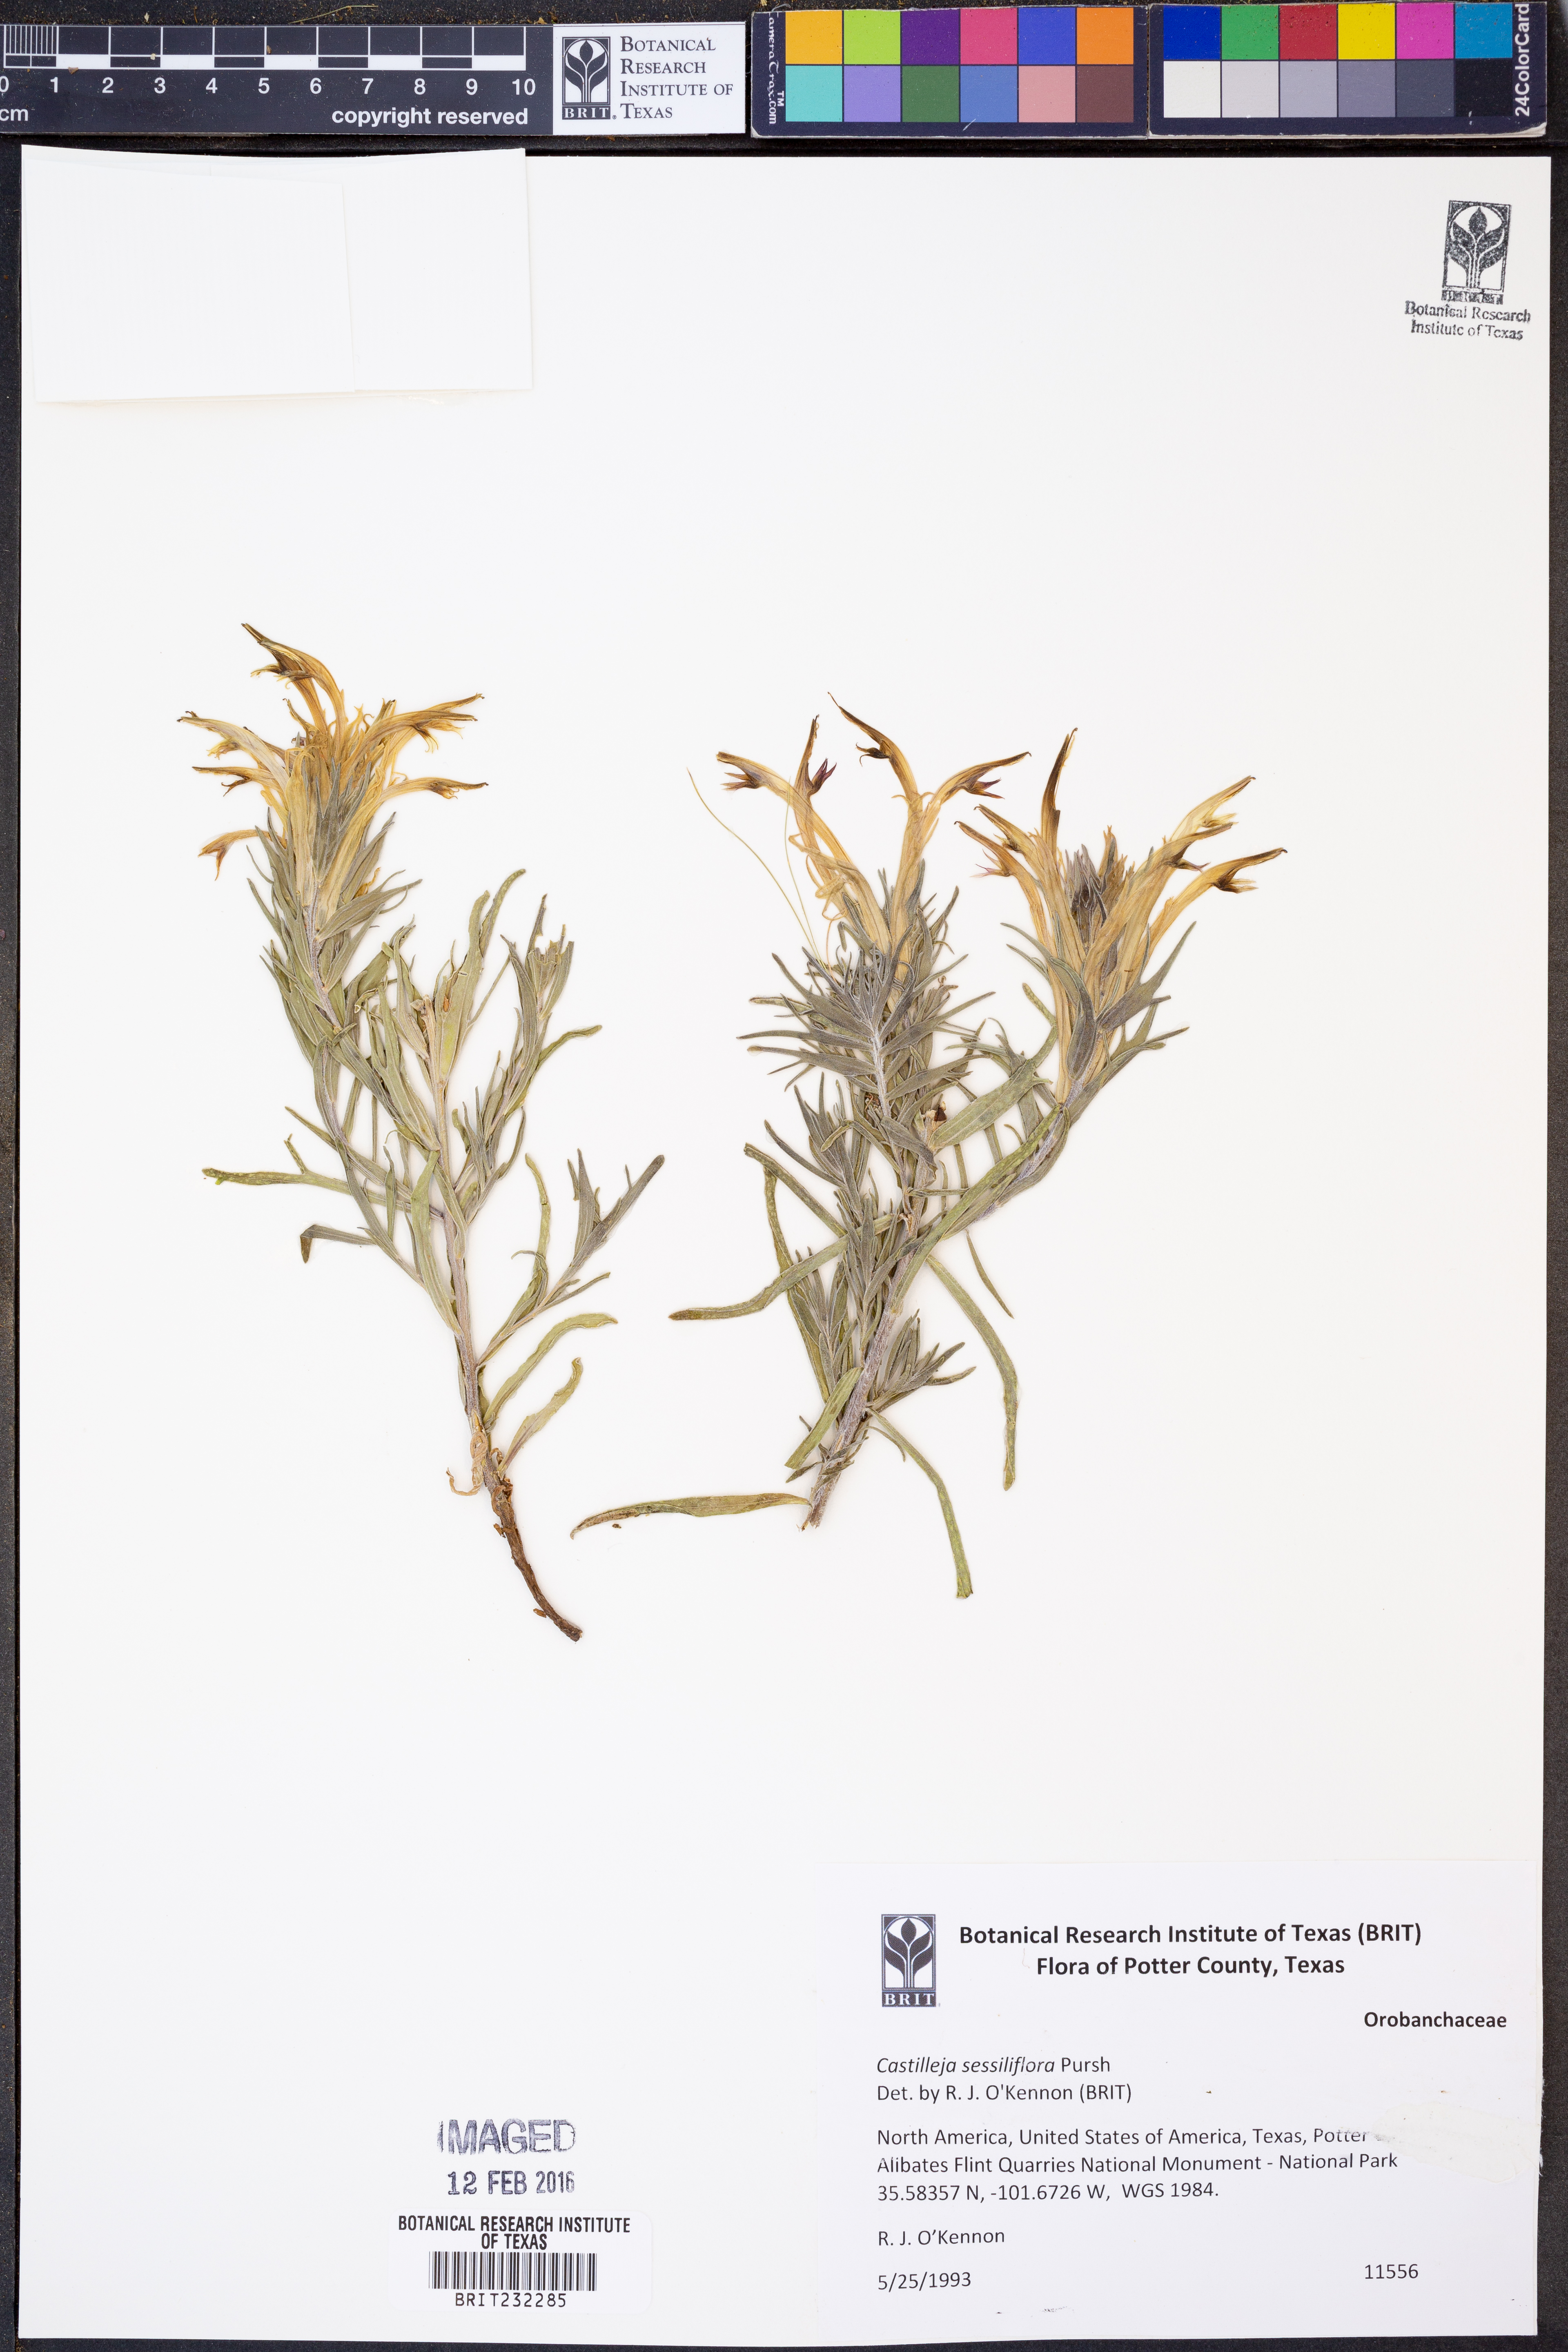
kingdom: Plantae
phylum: Tracheophyta
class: Magnoliopsida
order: Lamiales
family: Orobanchaceae
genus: Castilleja
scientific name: Castilleja sessiliflora
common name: Downy paintbrush
